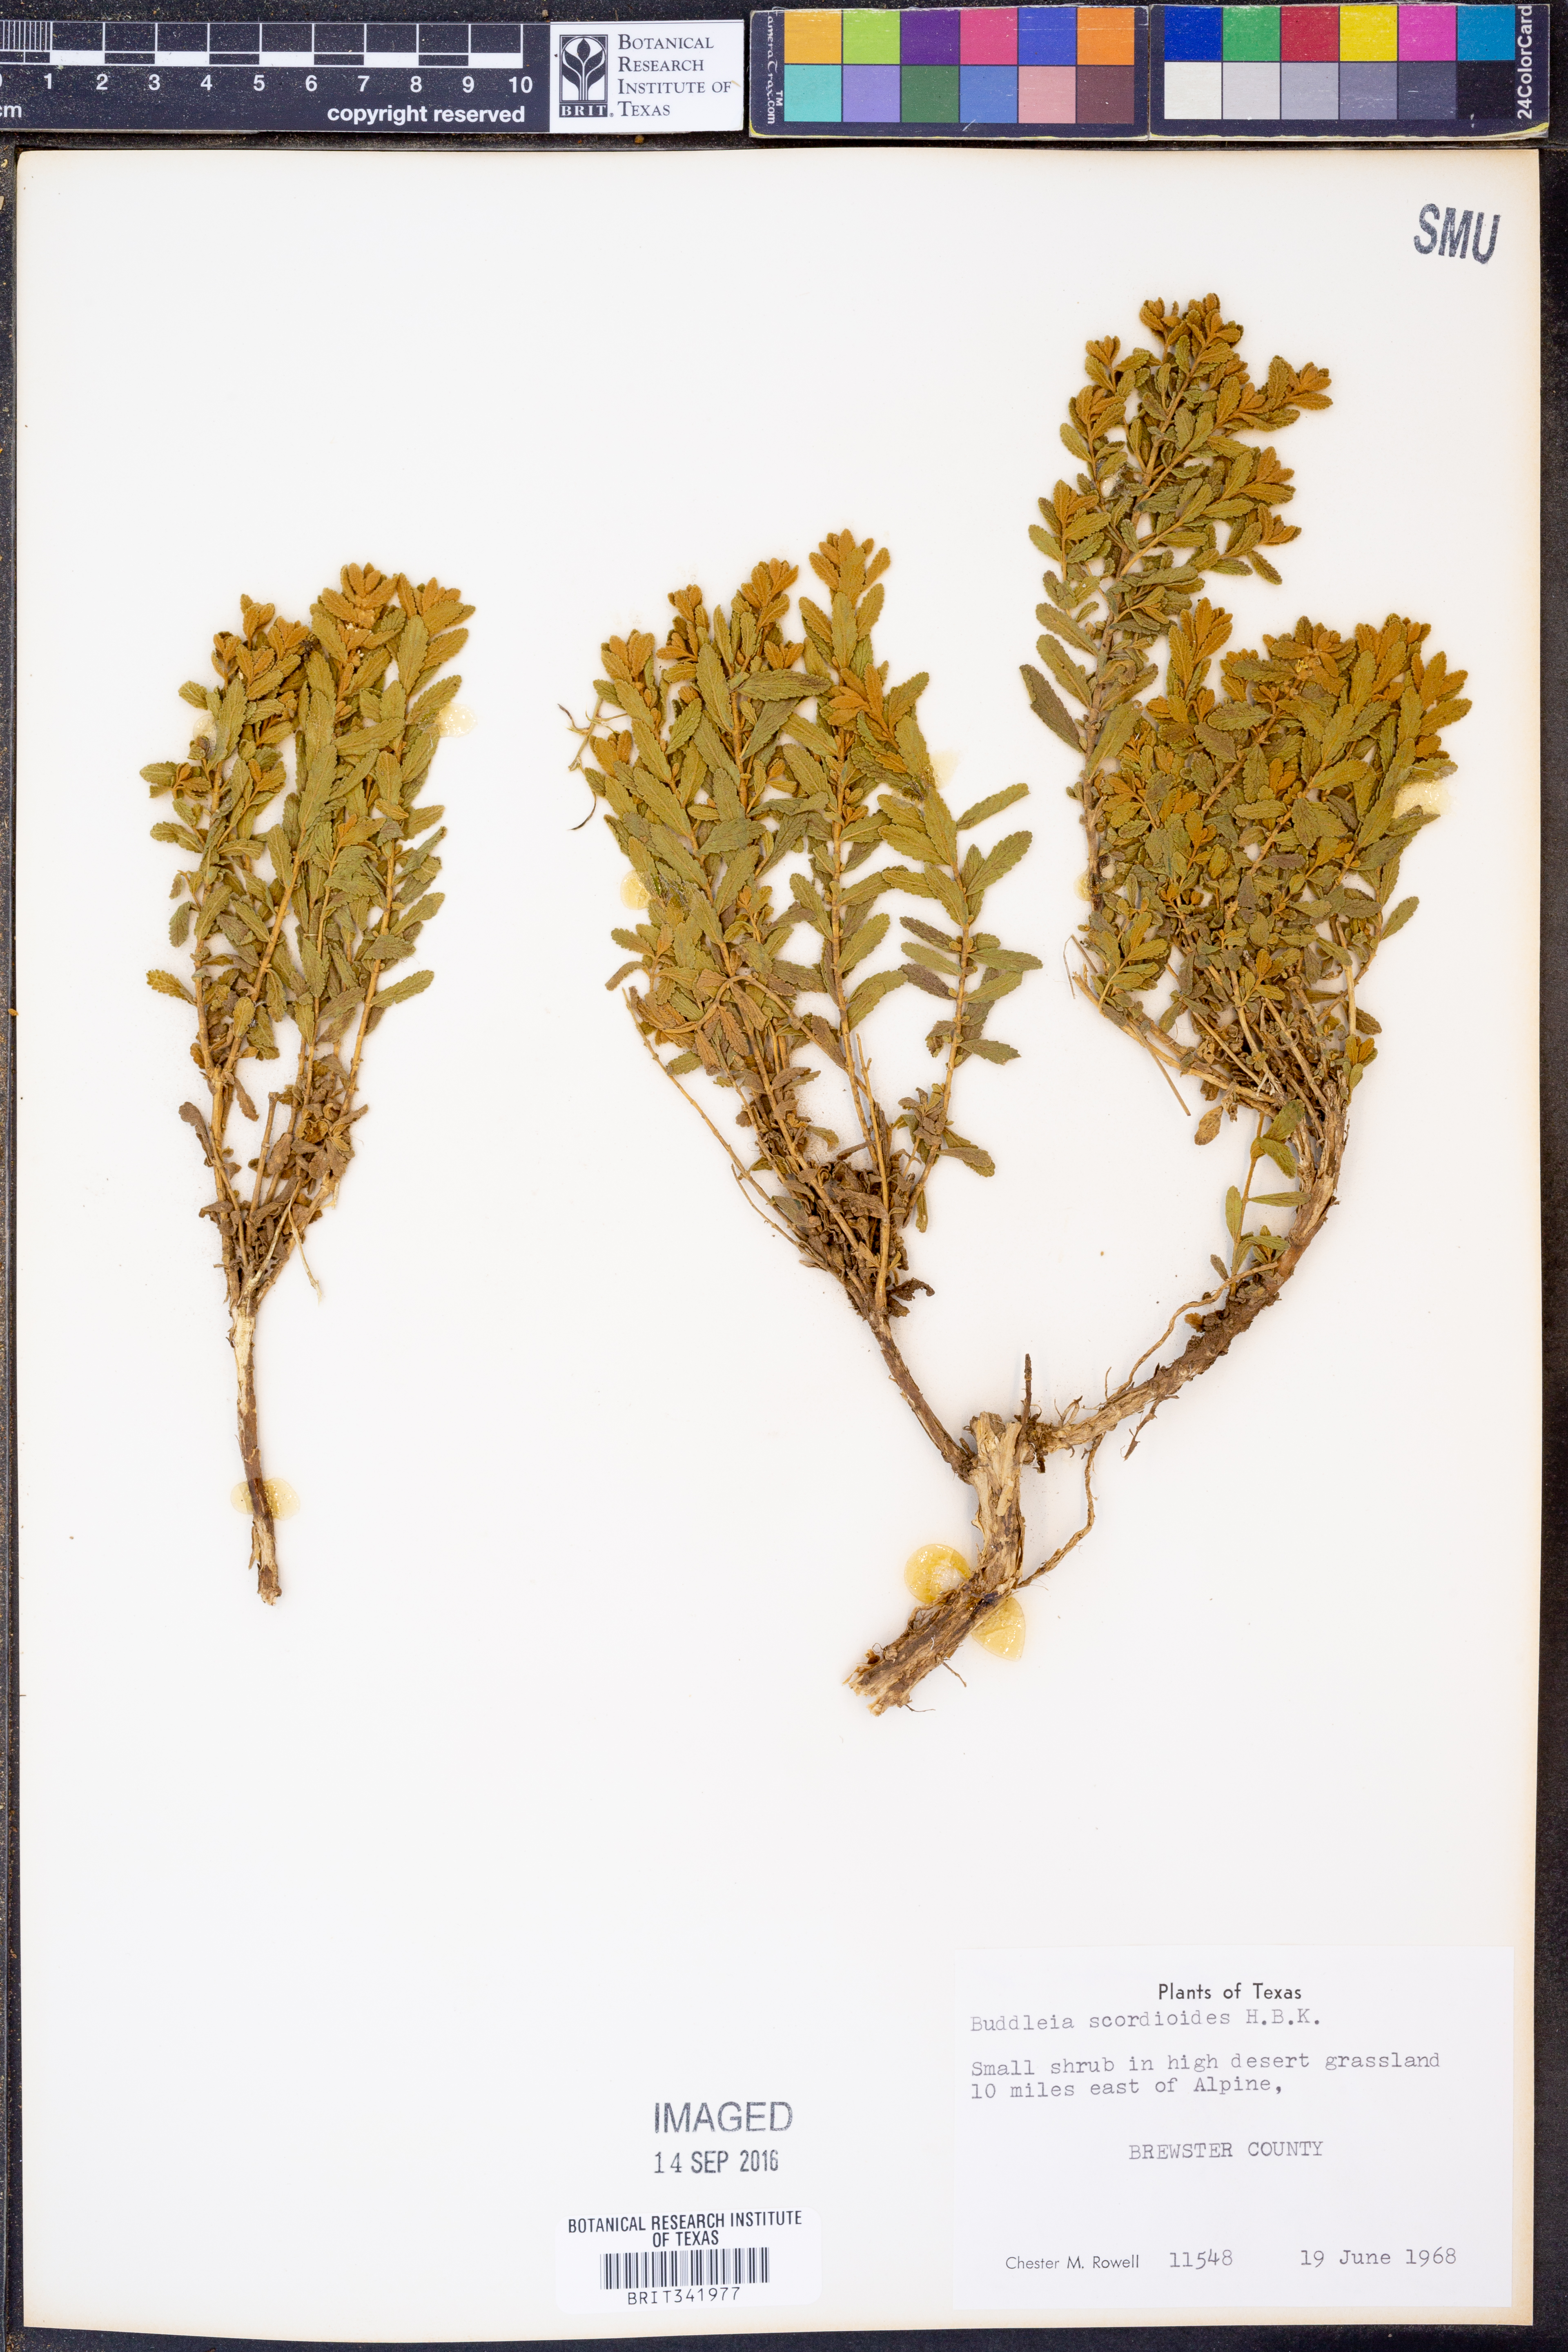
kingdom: Plantae
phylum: Tracheophyta
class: Magnoliopsida
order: Lamiales
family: Scrophulariaceae
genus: Buddleja
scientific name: Buddleja scordioides
